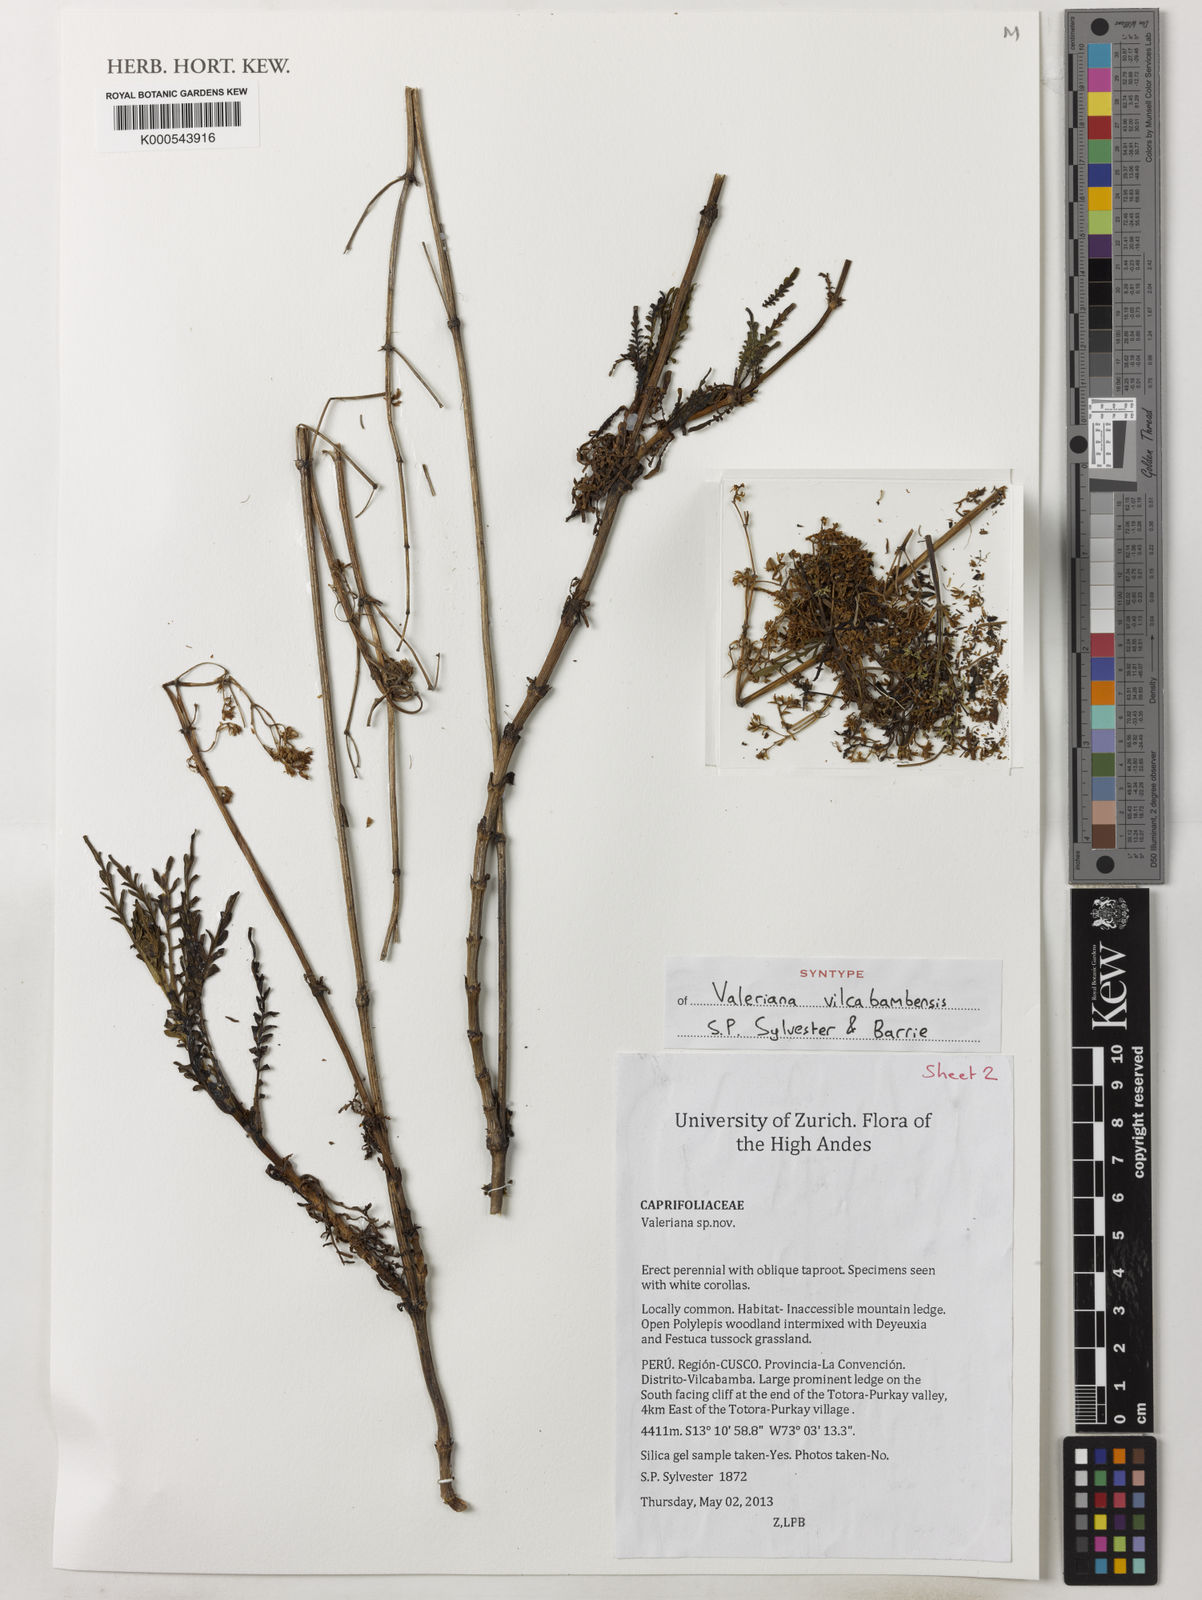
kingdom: Plantae
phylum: Tracheophyta
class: Magnoliopsida
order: Dipsacales
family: Caprifoliaceae
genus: Valeriana
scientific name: Valeriana
